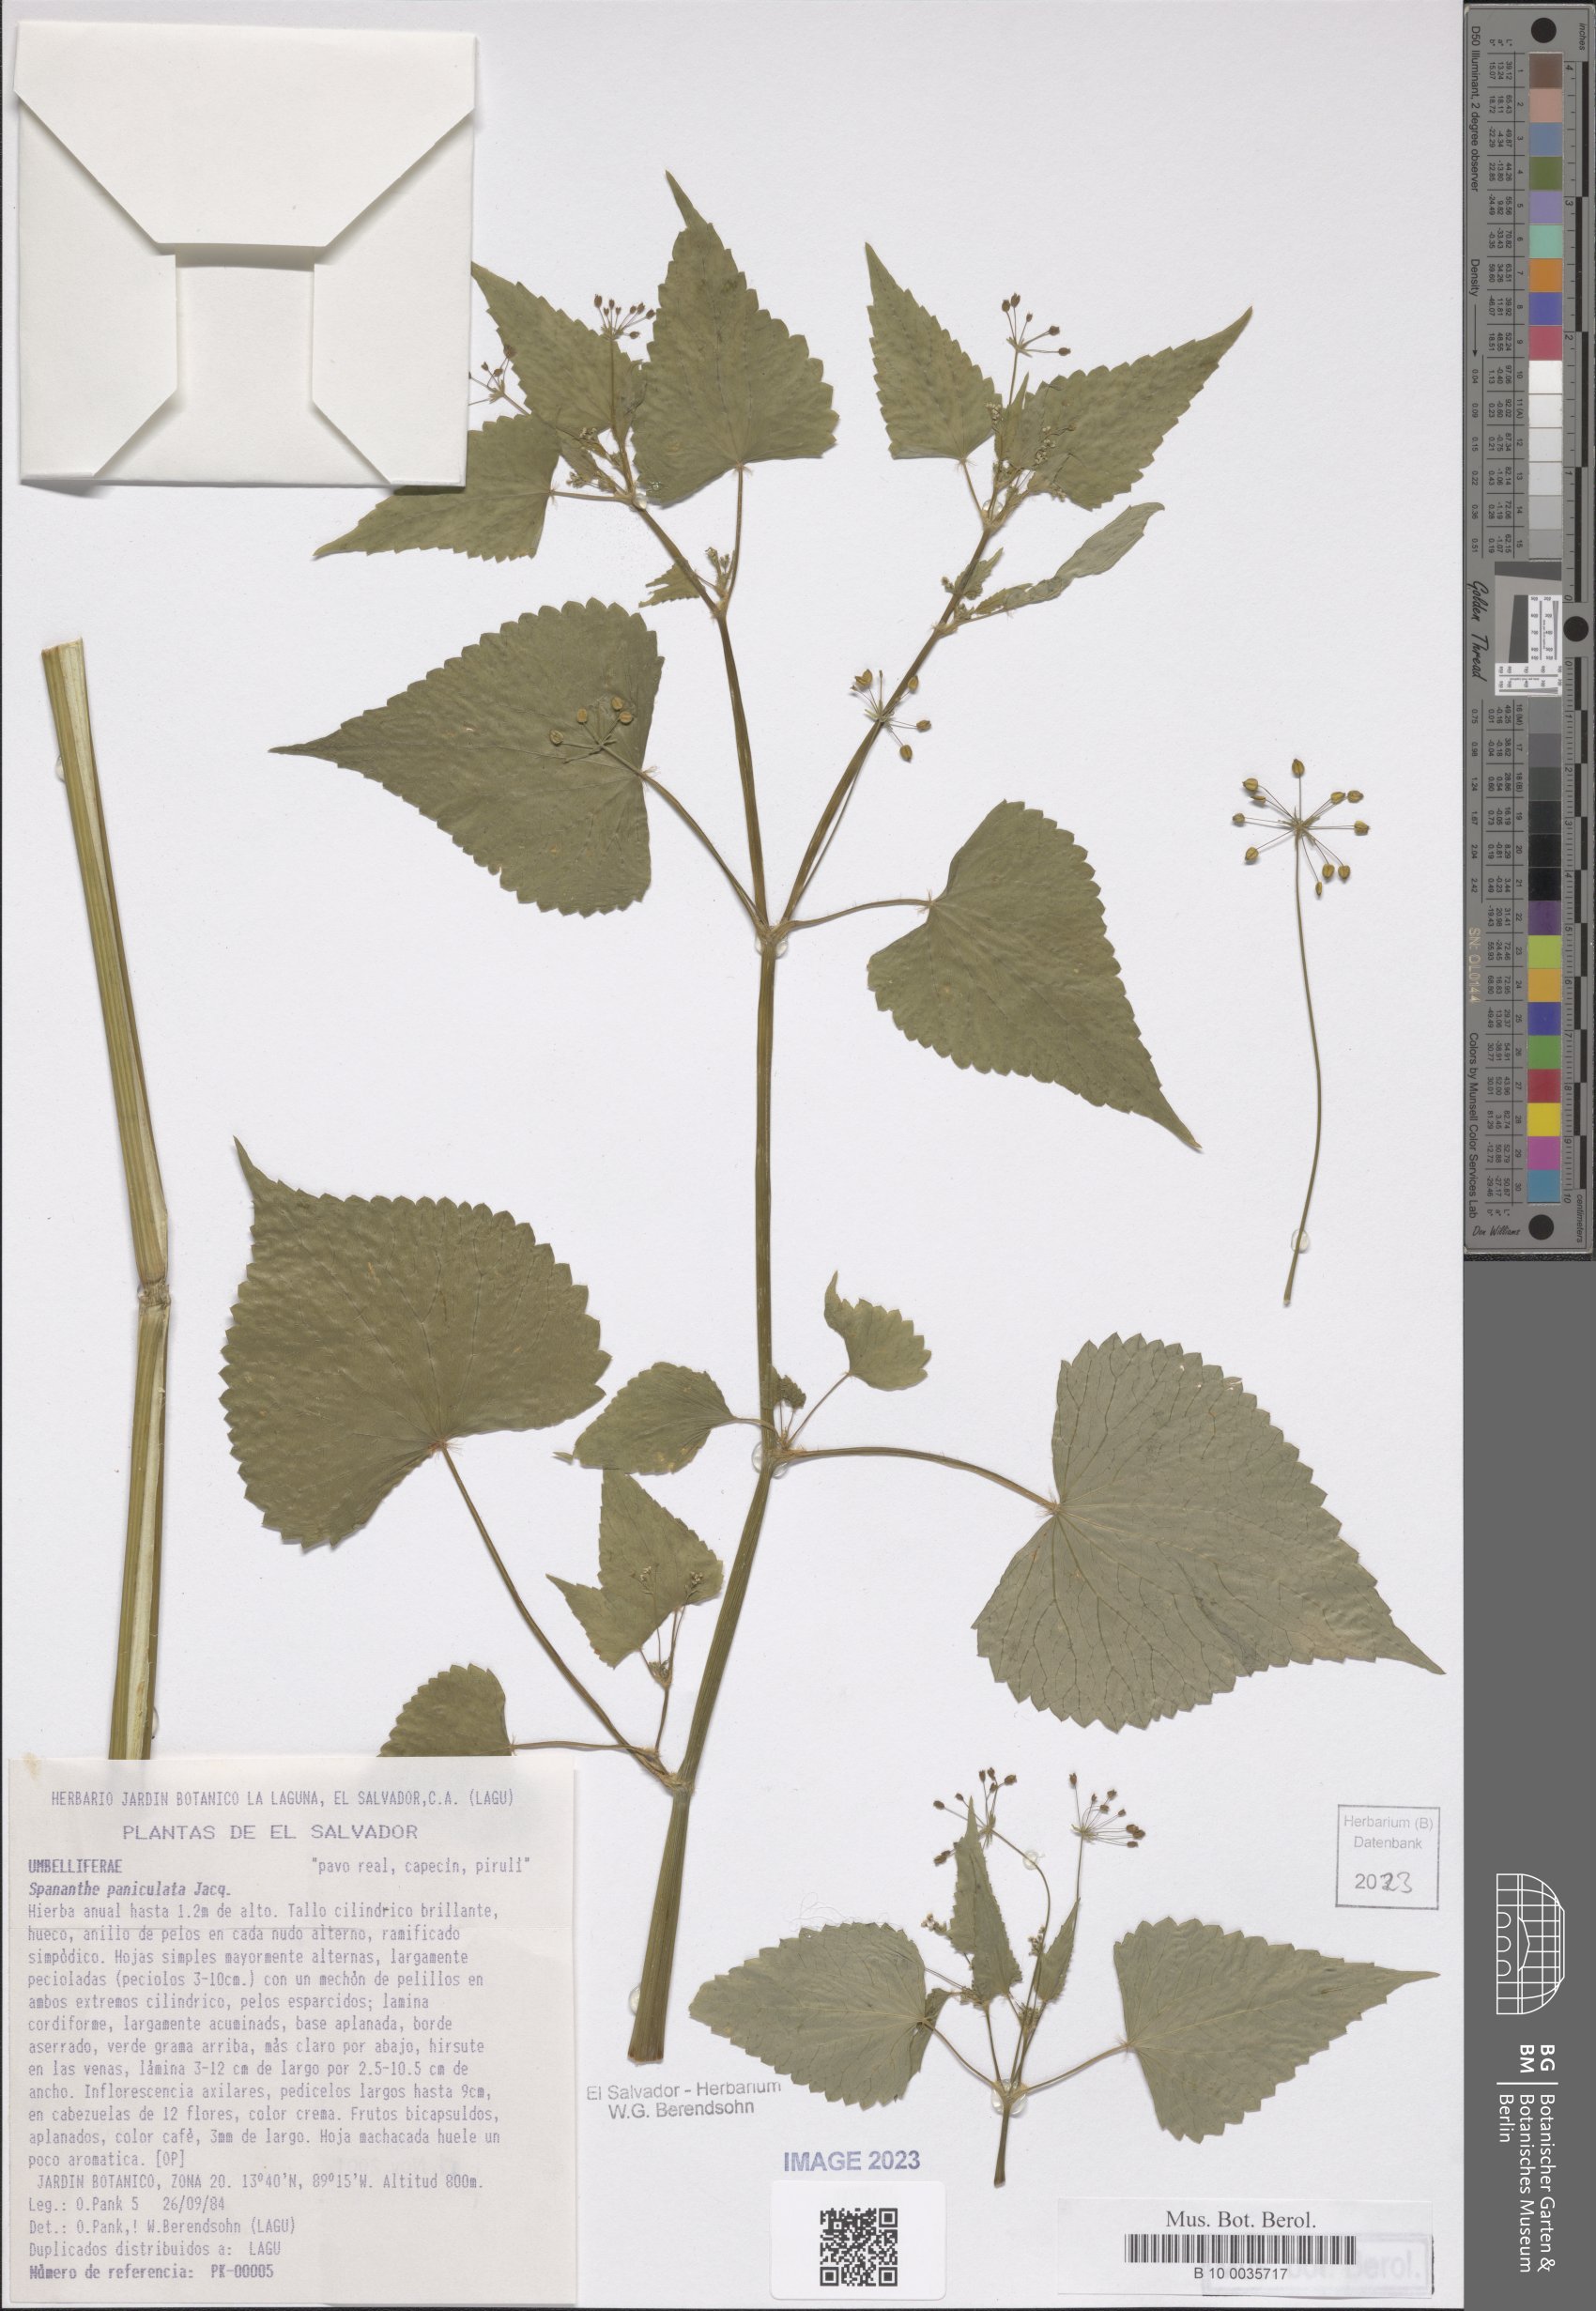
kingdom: Plantae
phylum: Tracheophyta
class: Magnoliopsida
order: Apiales
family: Apiaceae
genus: Spananthe
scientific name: Spananthe paniculata
